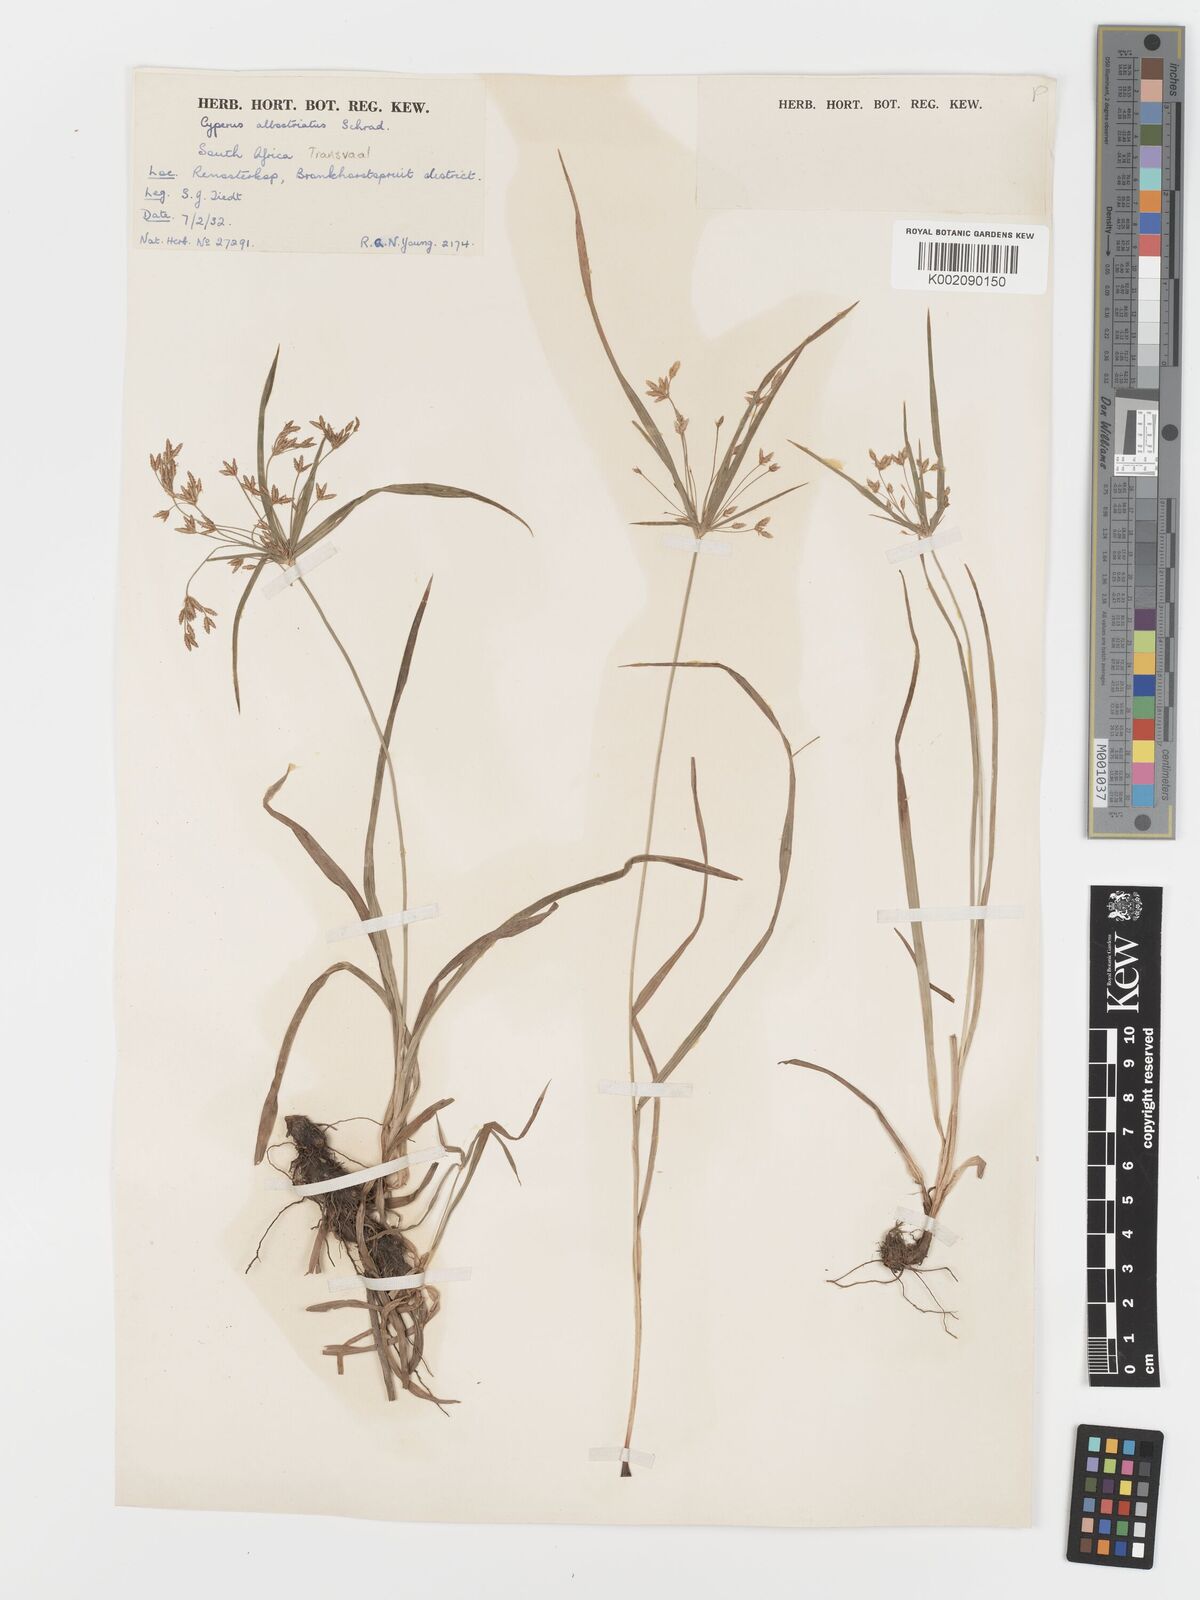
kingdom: Plantae
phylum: Tracheophyta
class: Liliopsida
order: Poales
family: Cyperaceae
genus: Cyperus
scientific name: Cyperus albostriatus
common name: Dwarf umbrella-grass
